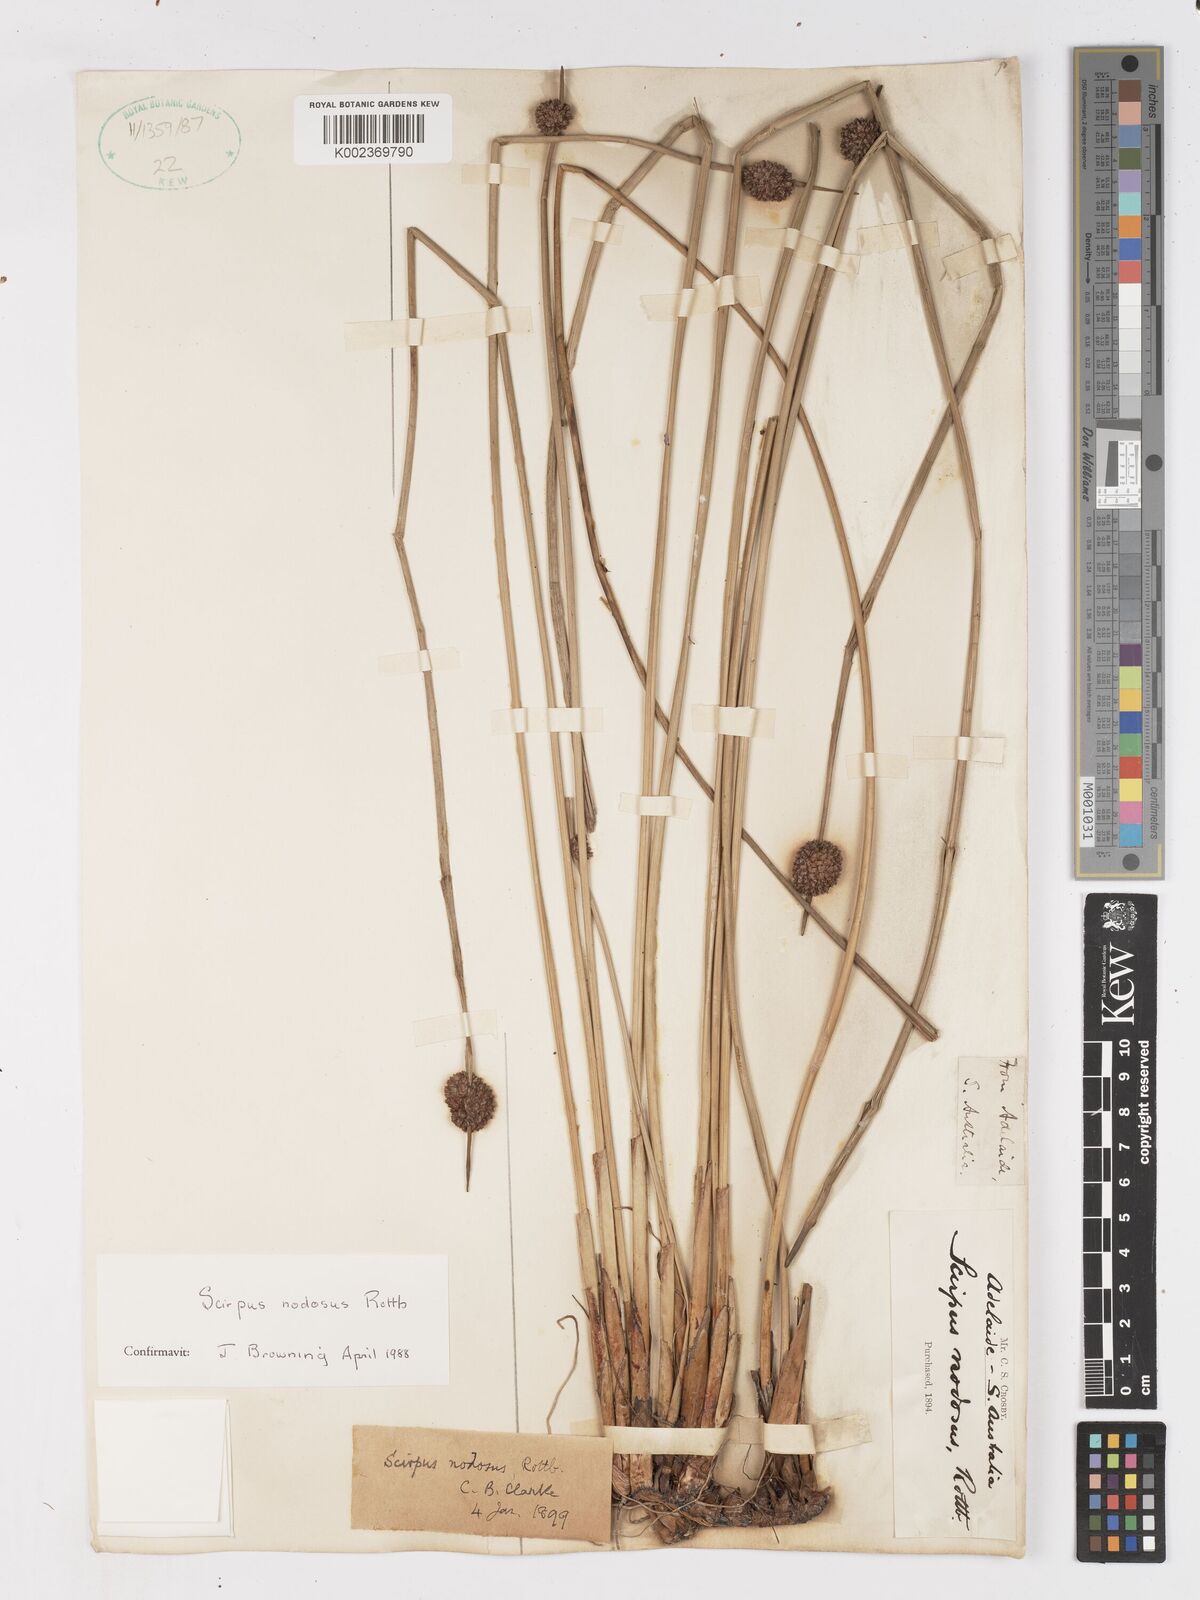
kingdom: Plantae
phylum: Tracheophyta
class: Liliopsida
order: Poales
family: Cyperaceae
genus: Ficinia
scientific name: Ficinia nodosa
